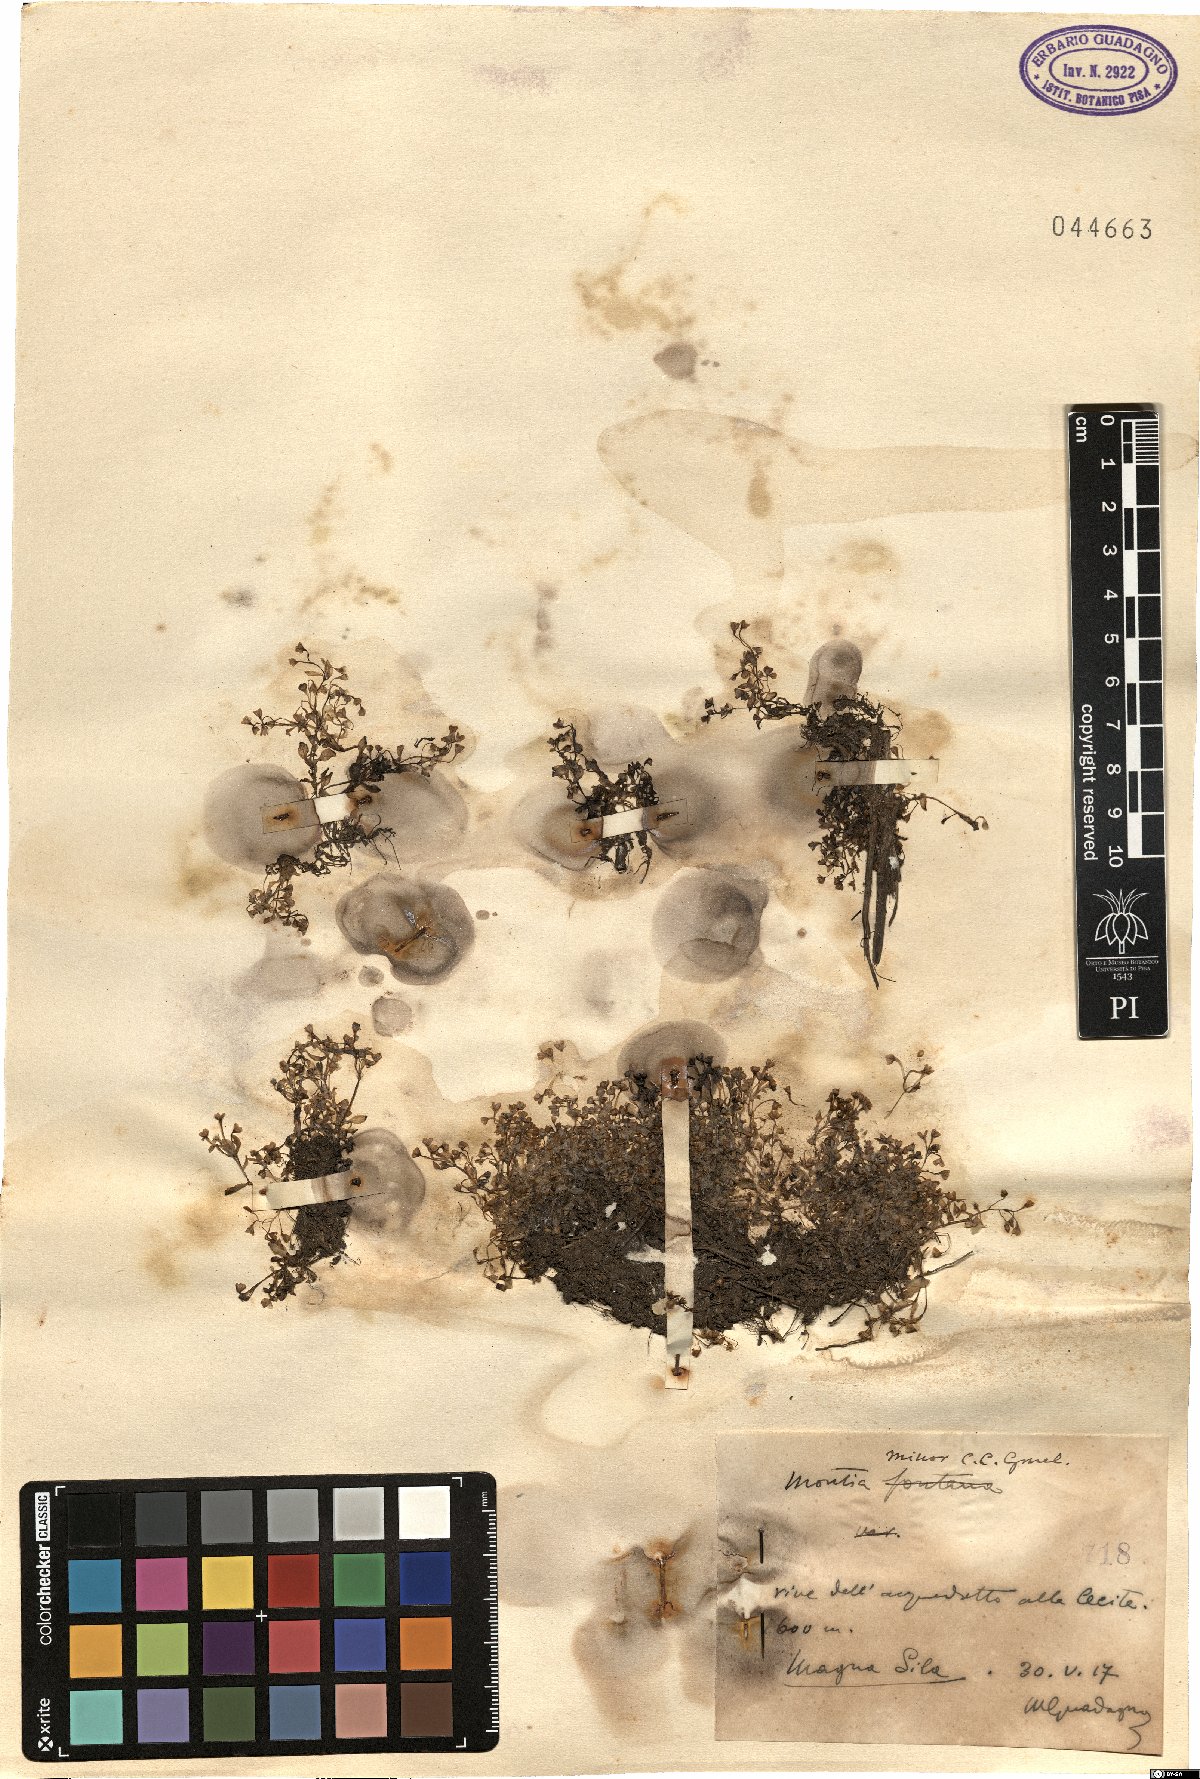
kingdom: Plantae
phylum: Tracheophyta
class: Magnoliopsida
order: Caryophyllales
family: Montiaceae
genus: Montia
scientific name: Montia arvensis
